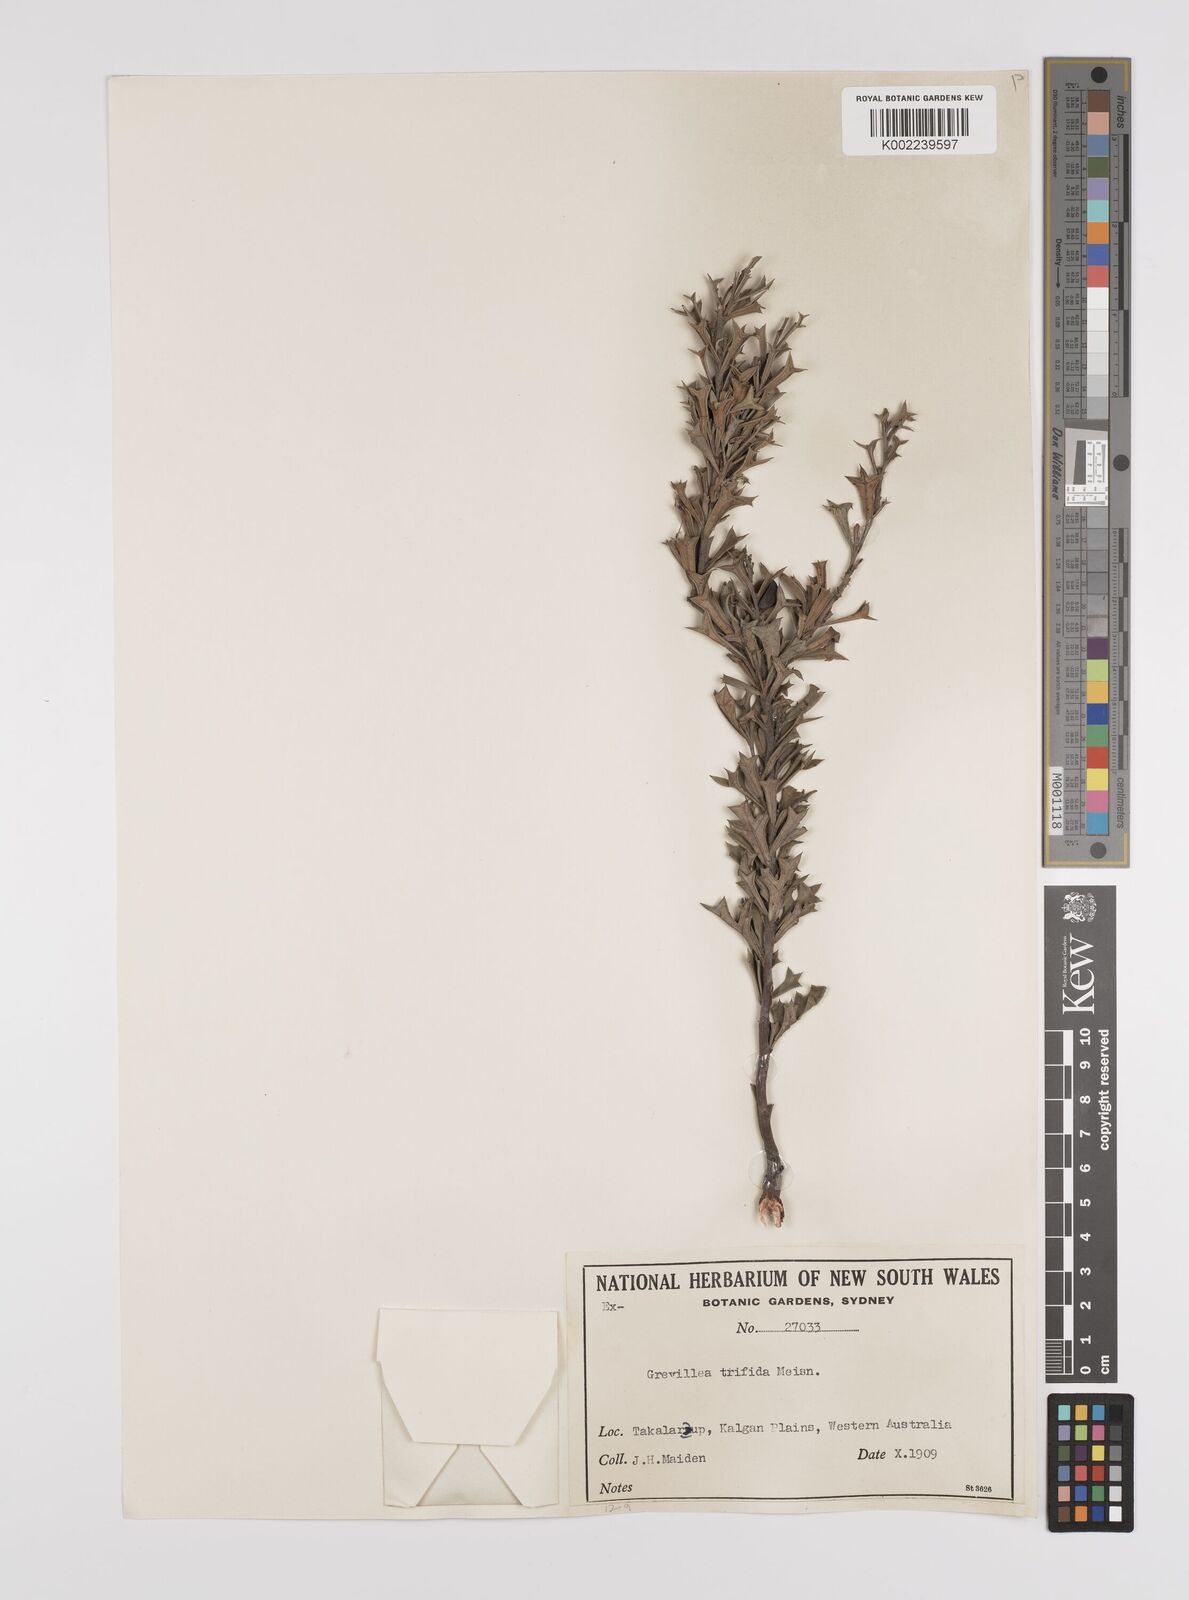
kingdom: Plantae
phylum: Tracheophyta
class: Magnoliopsida
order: Proteales
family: Proteaceae
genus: Grevillea
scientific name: Grevillea trifida
